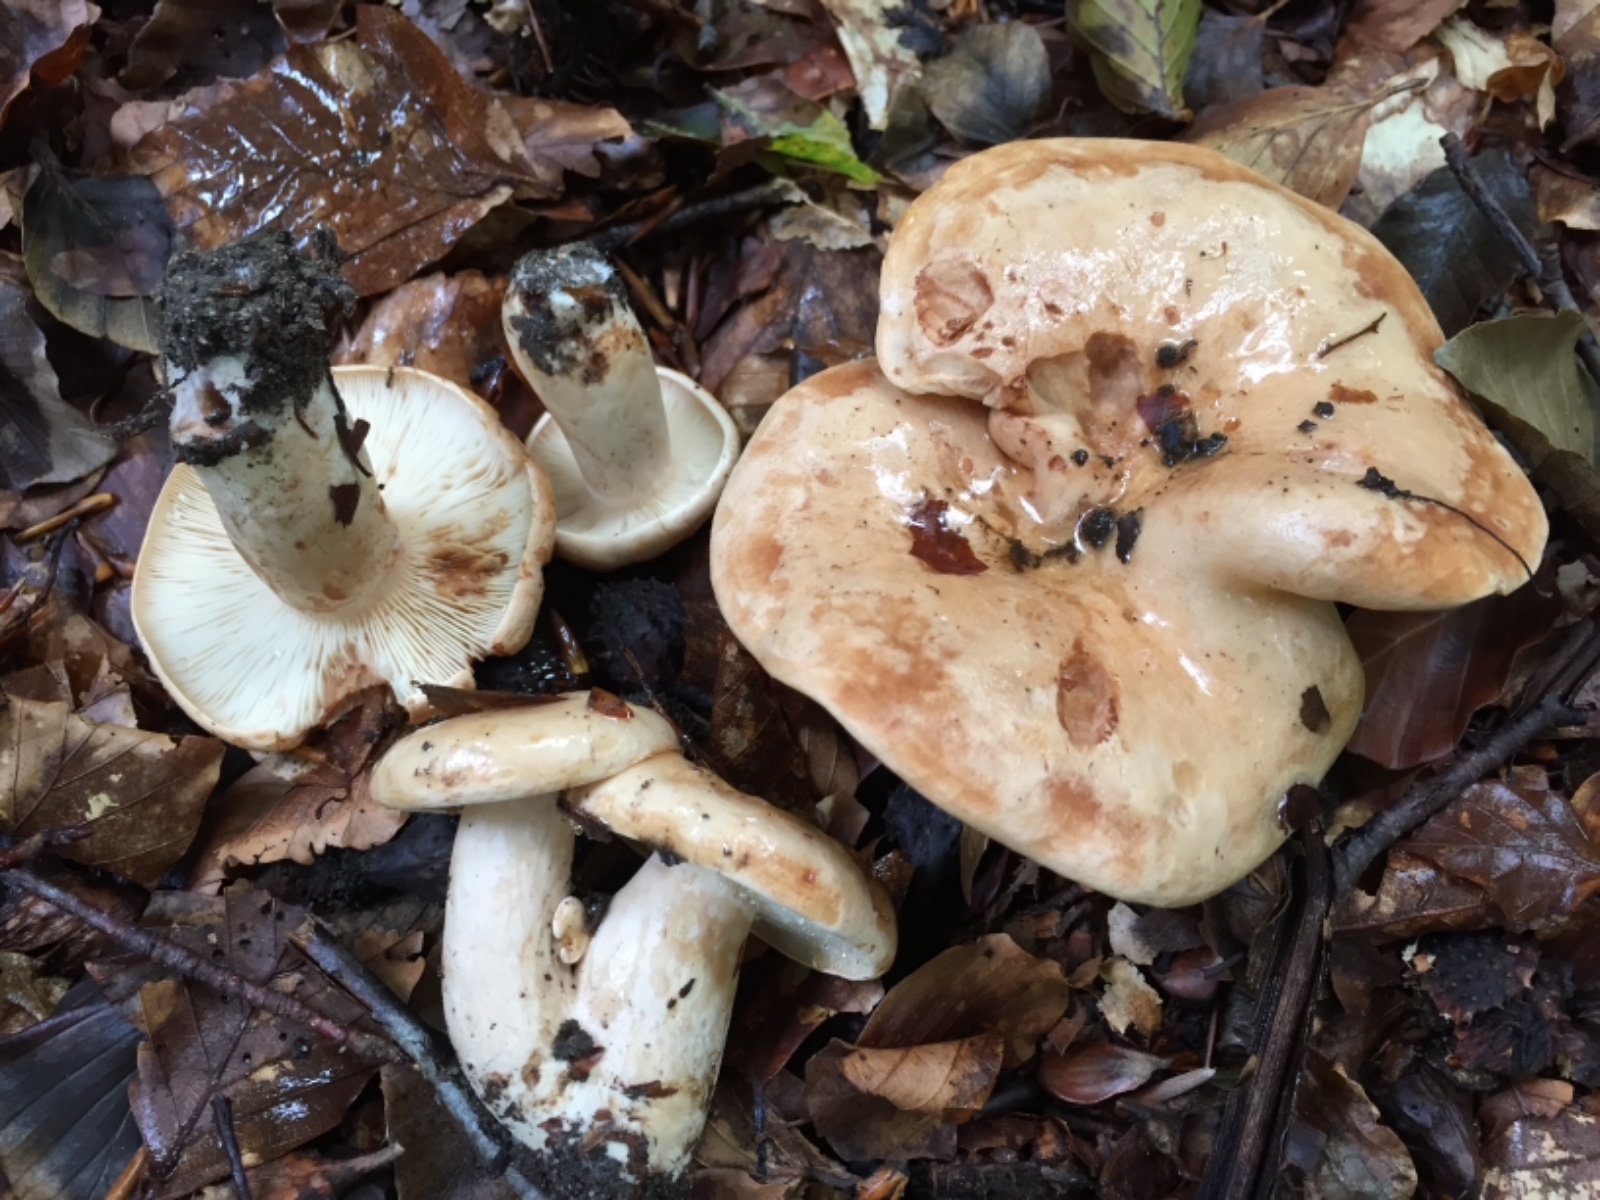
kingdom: Fungi
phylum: Basidiomycota
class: Agaricomycetes
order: Russulales
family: Russulaceae
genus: Lactarius
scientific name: Lactarius pallidus
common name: bleg mælkehat
